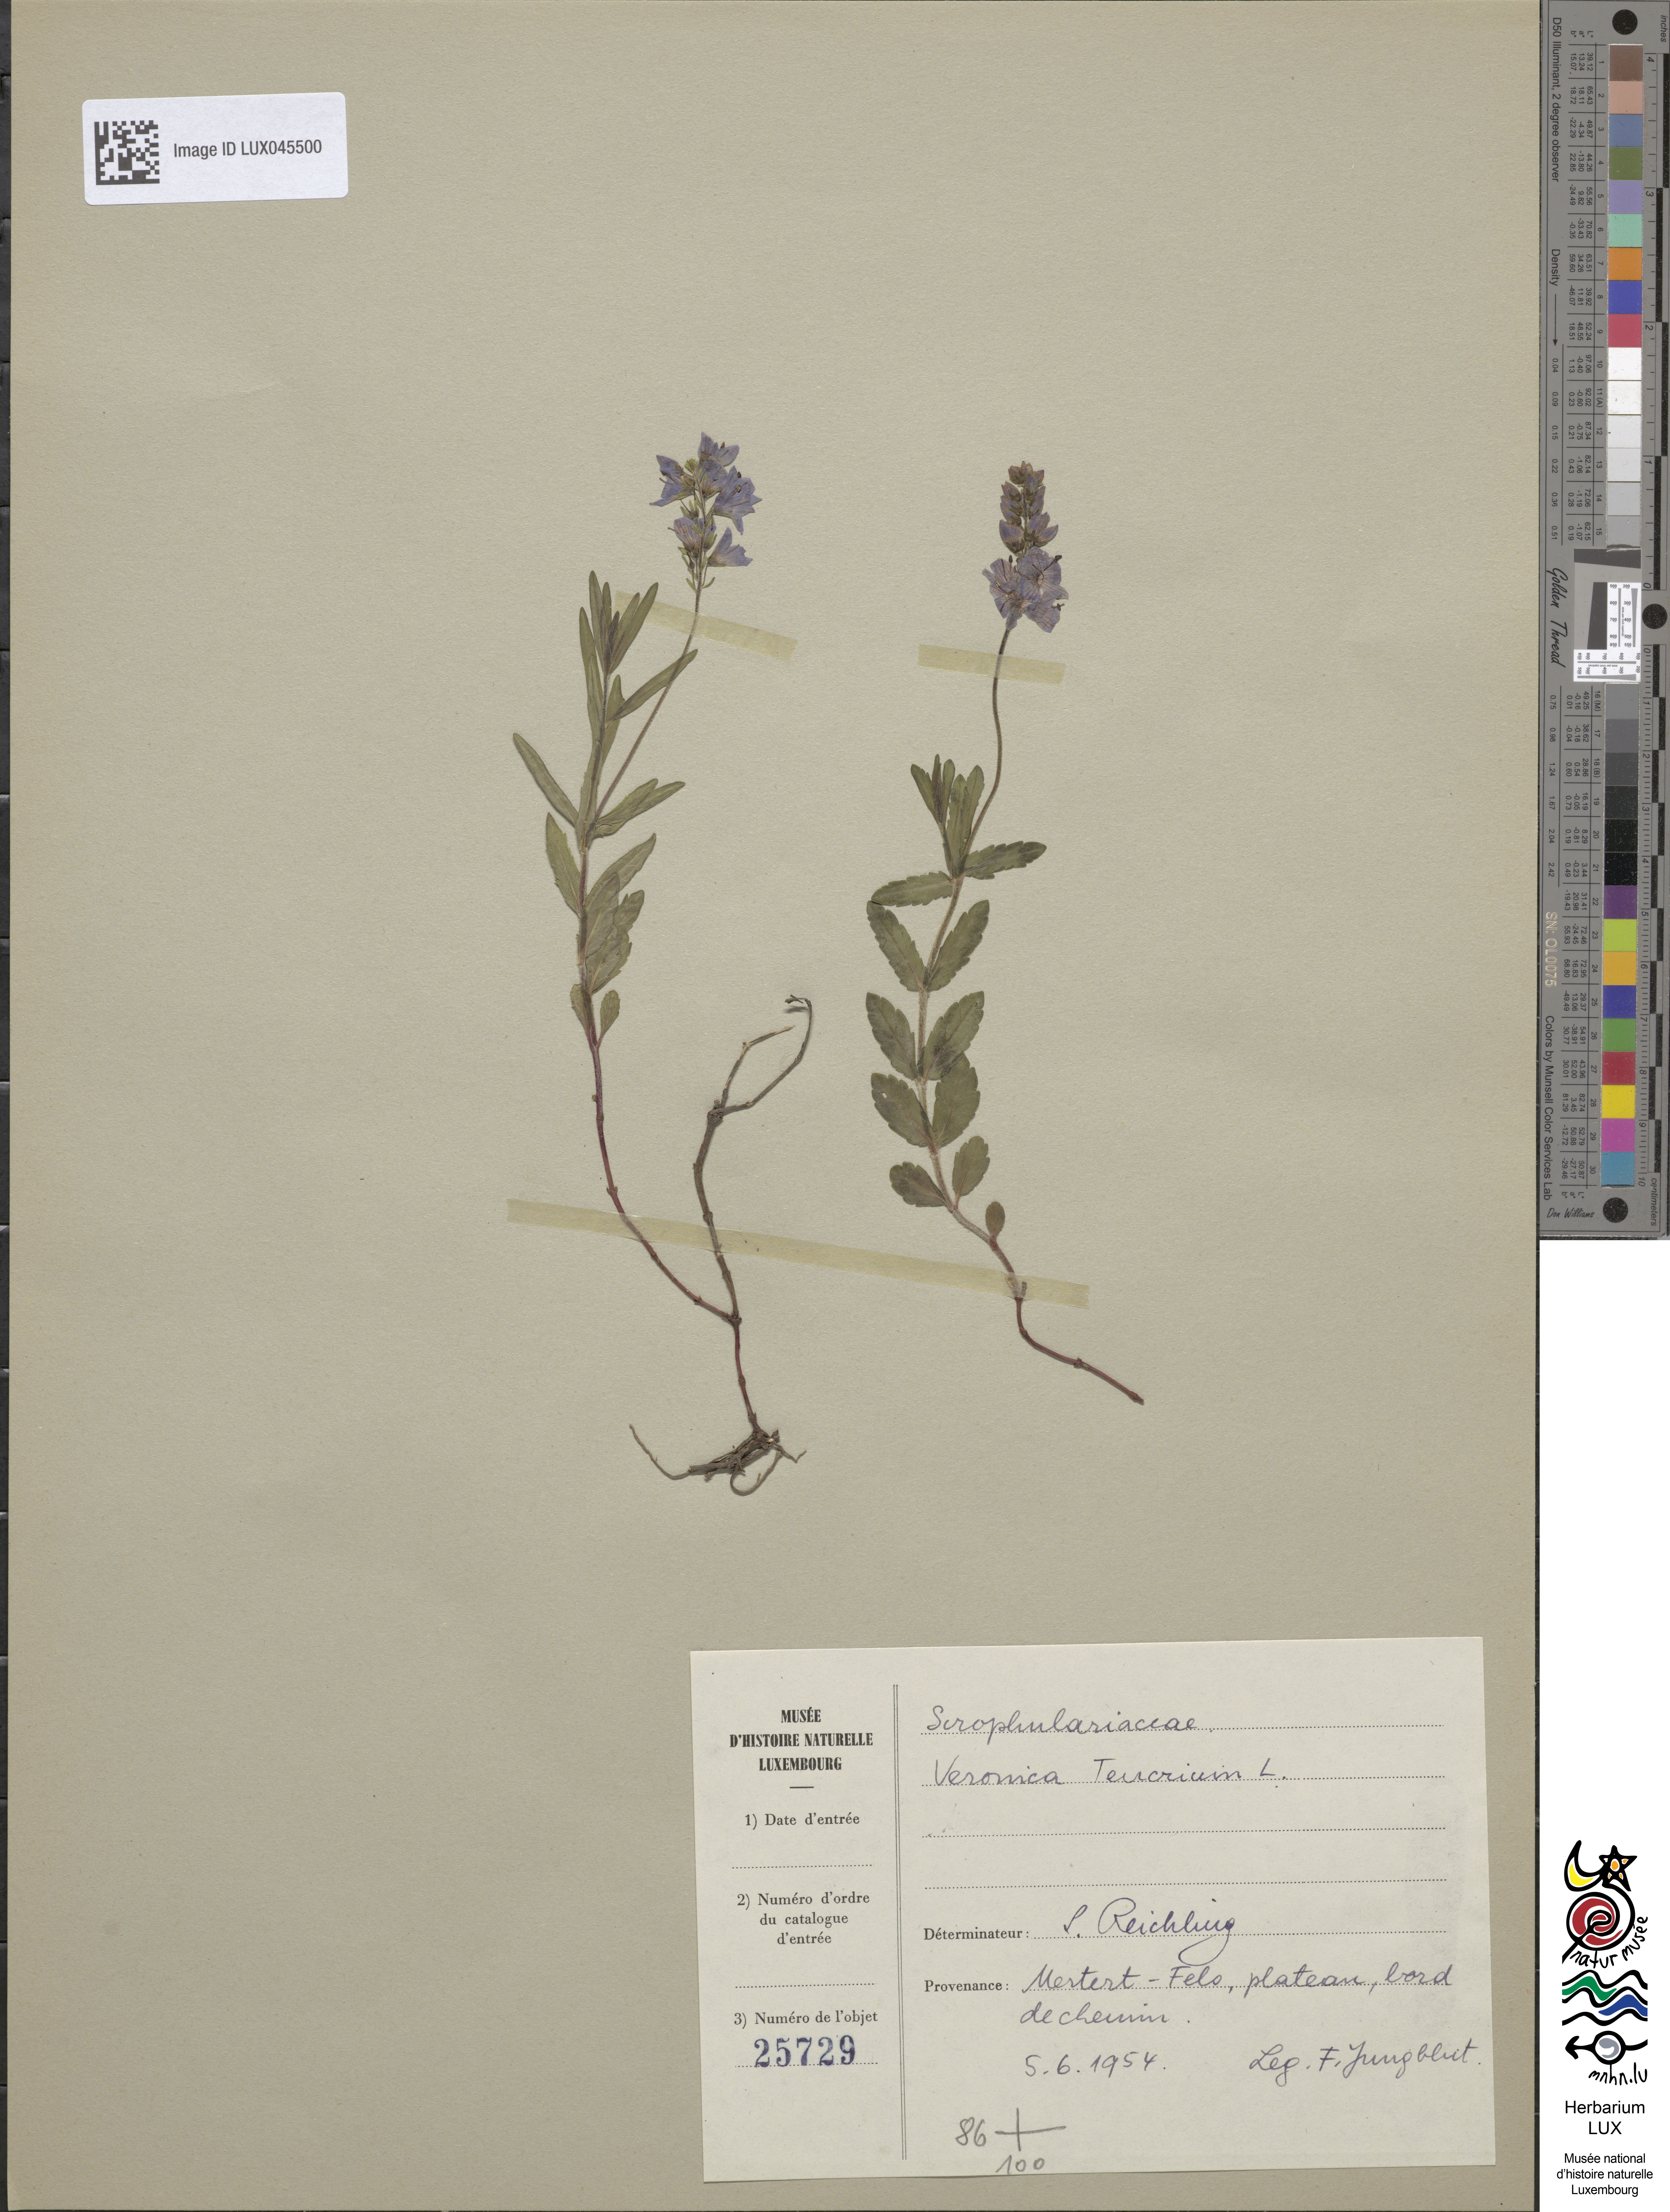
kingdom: Plantae
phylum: Tracheophyta
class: Magnoliopsida
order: Lamiales
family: Plantaginaceae
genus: Veronica
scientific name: Veronica teucrium
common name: Large speedwell
